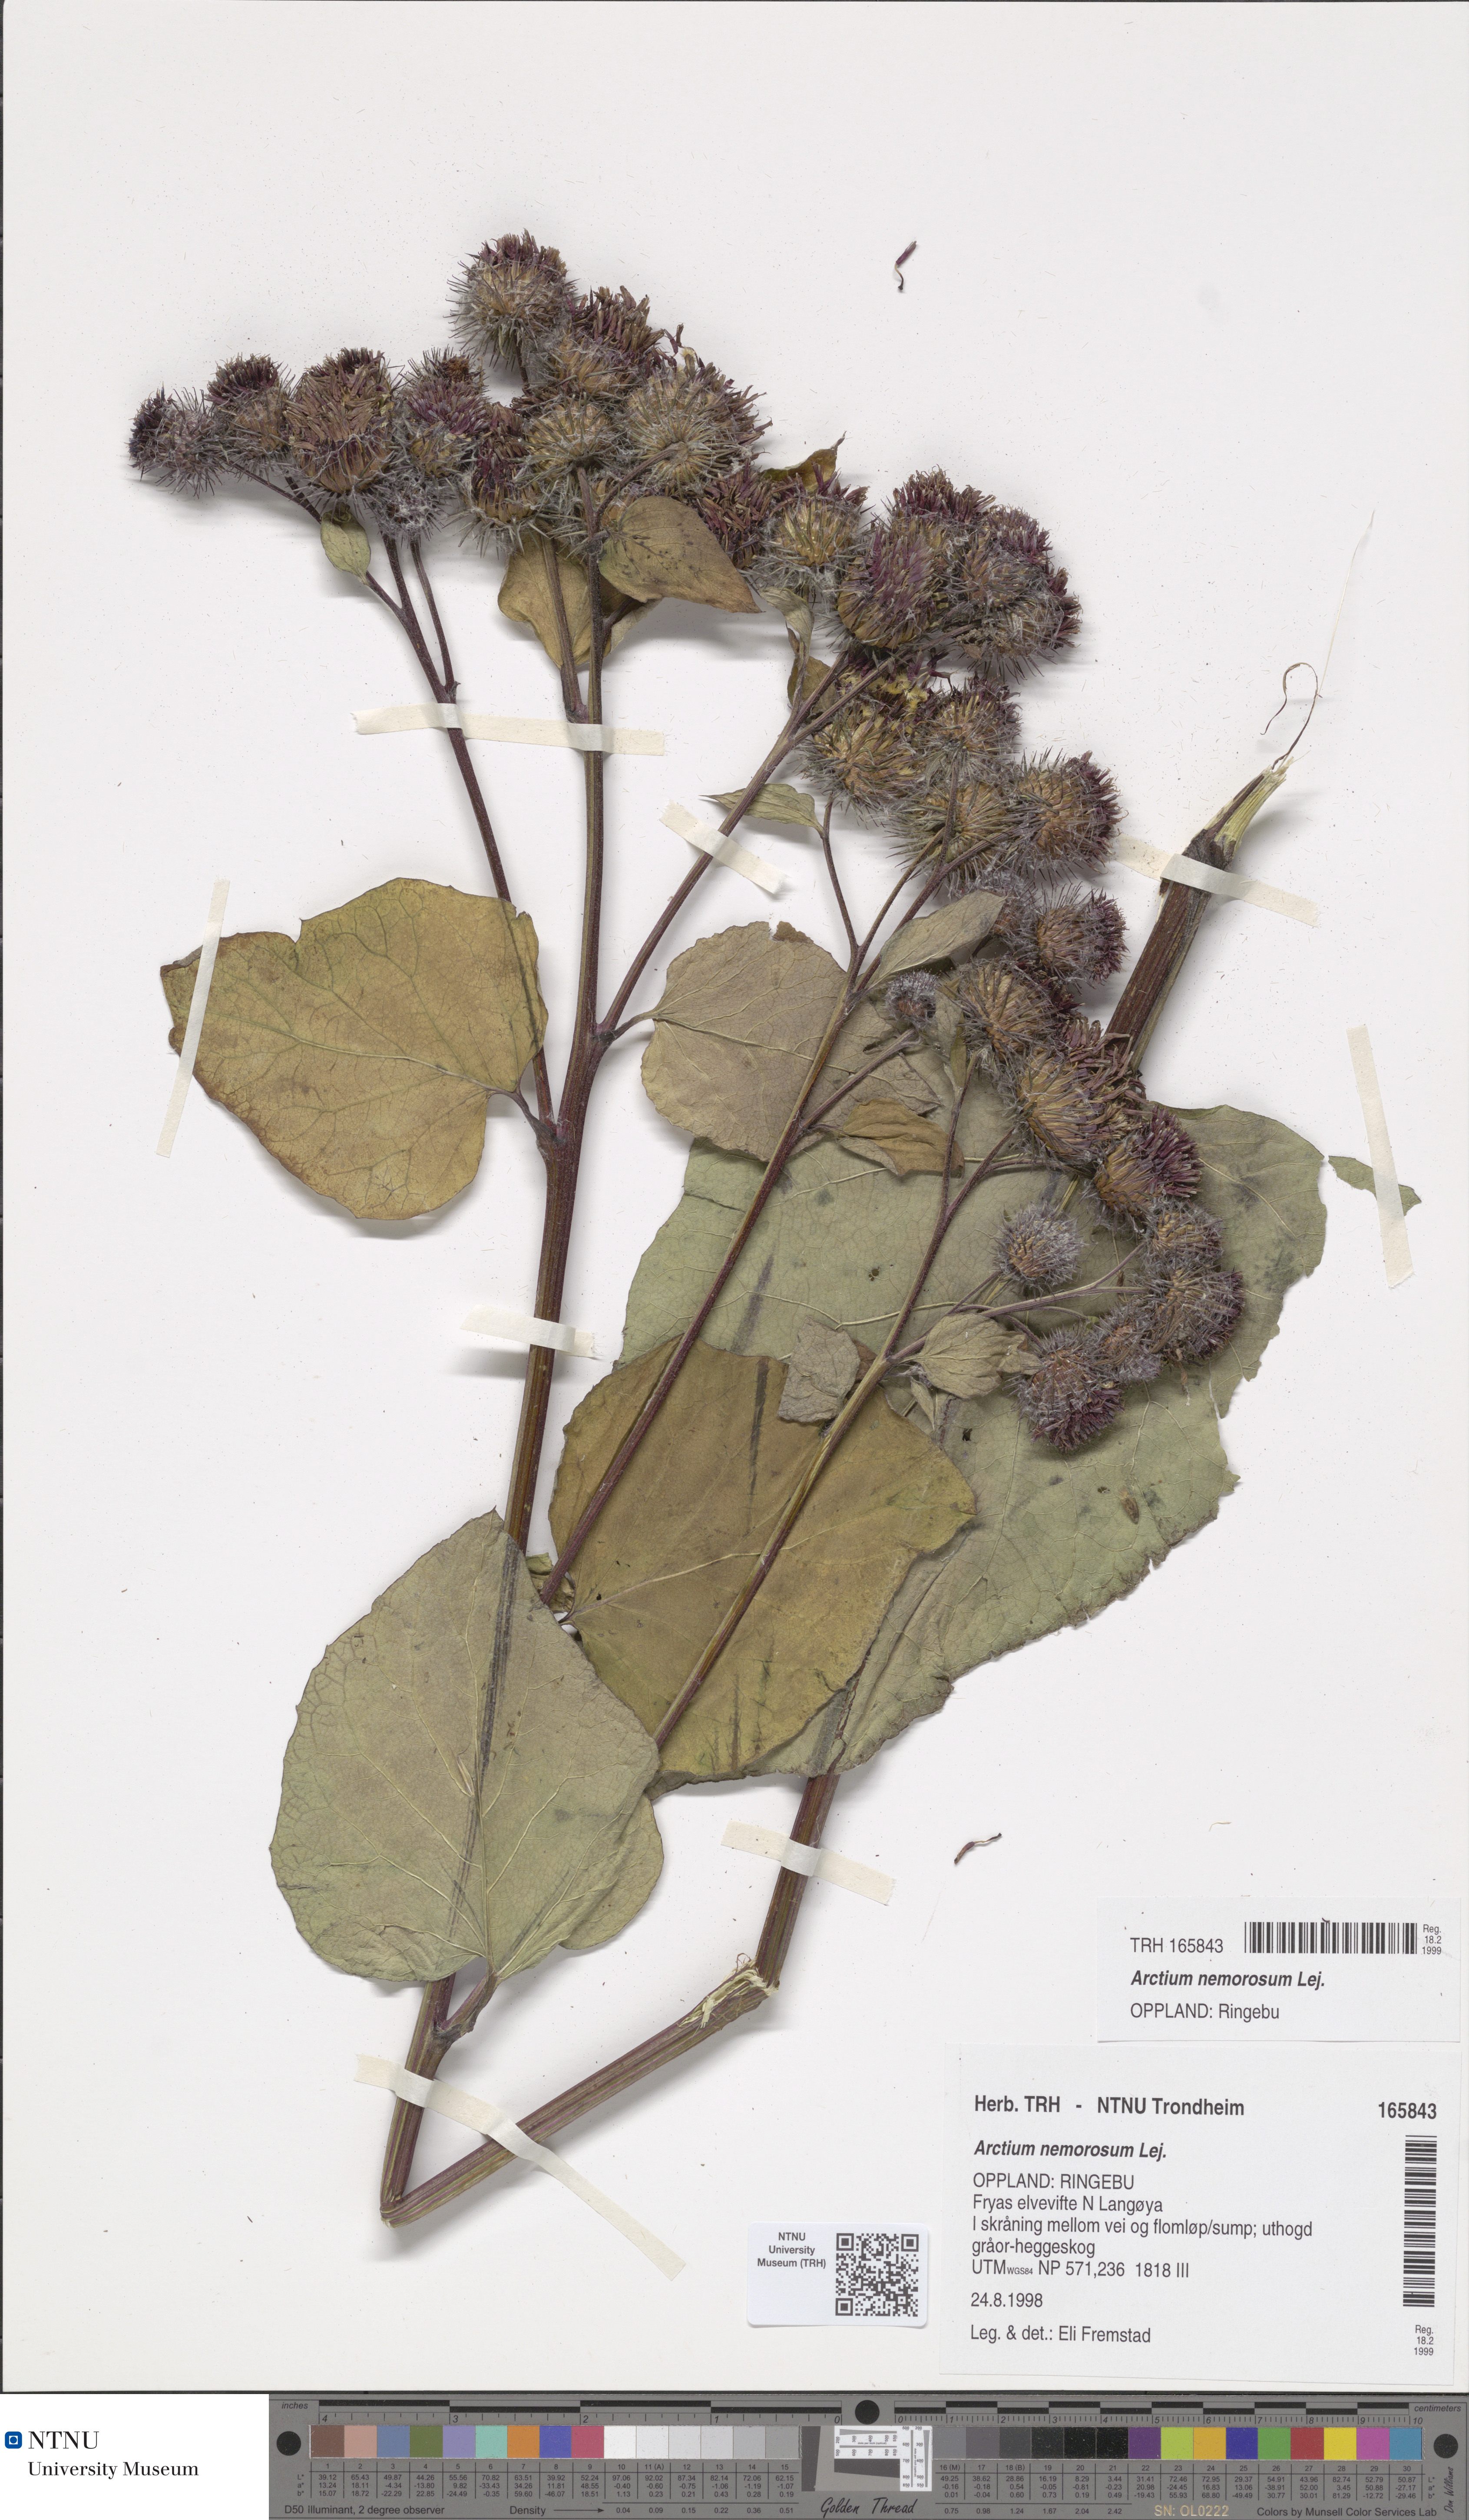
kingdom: Plantae
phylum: Tracheophyta
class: Magnoliopsida
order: Asterales
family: Asteraceae
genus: Arctium
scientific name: Arctium nemorosum
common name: Wood burdock
